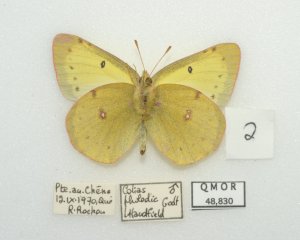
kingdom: Animalia
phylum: Arthropoda
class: Insecta
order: Lepidoptera
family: Pieridae
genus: Colias
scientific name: Colias philodice
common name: Clouded Sulphur
